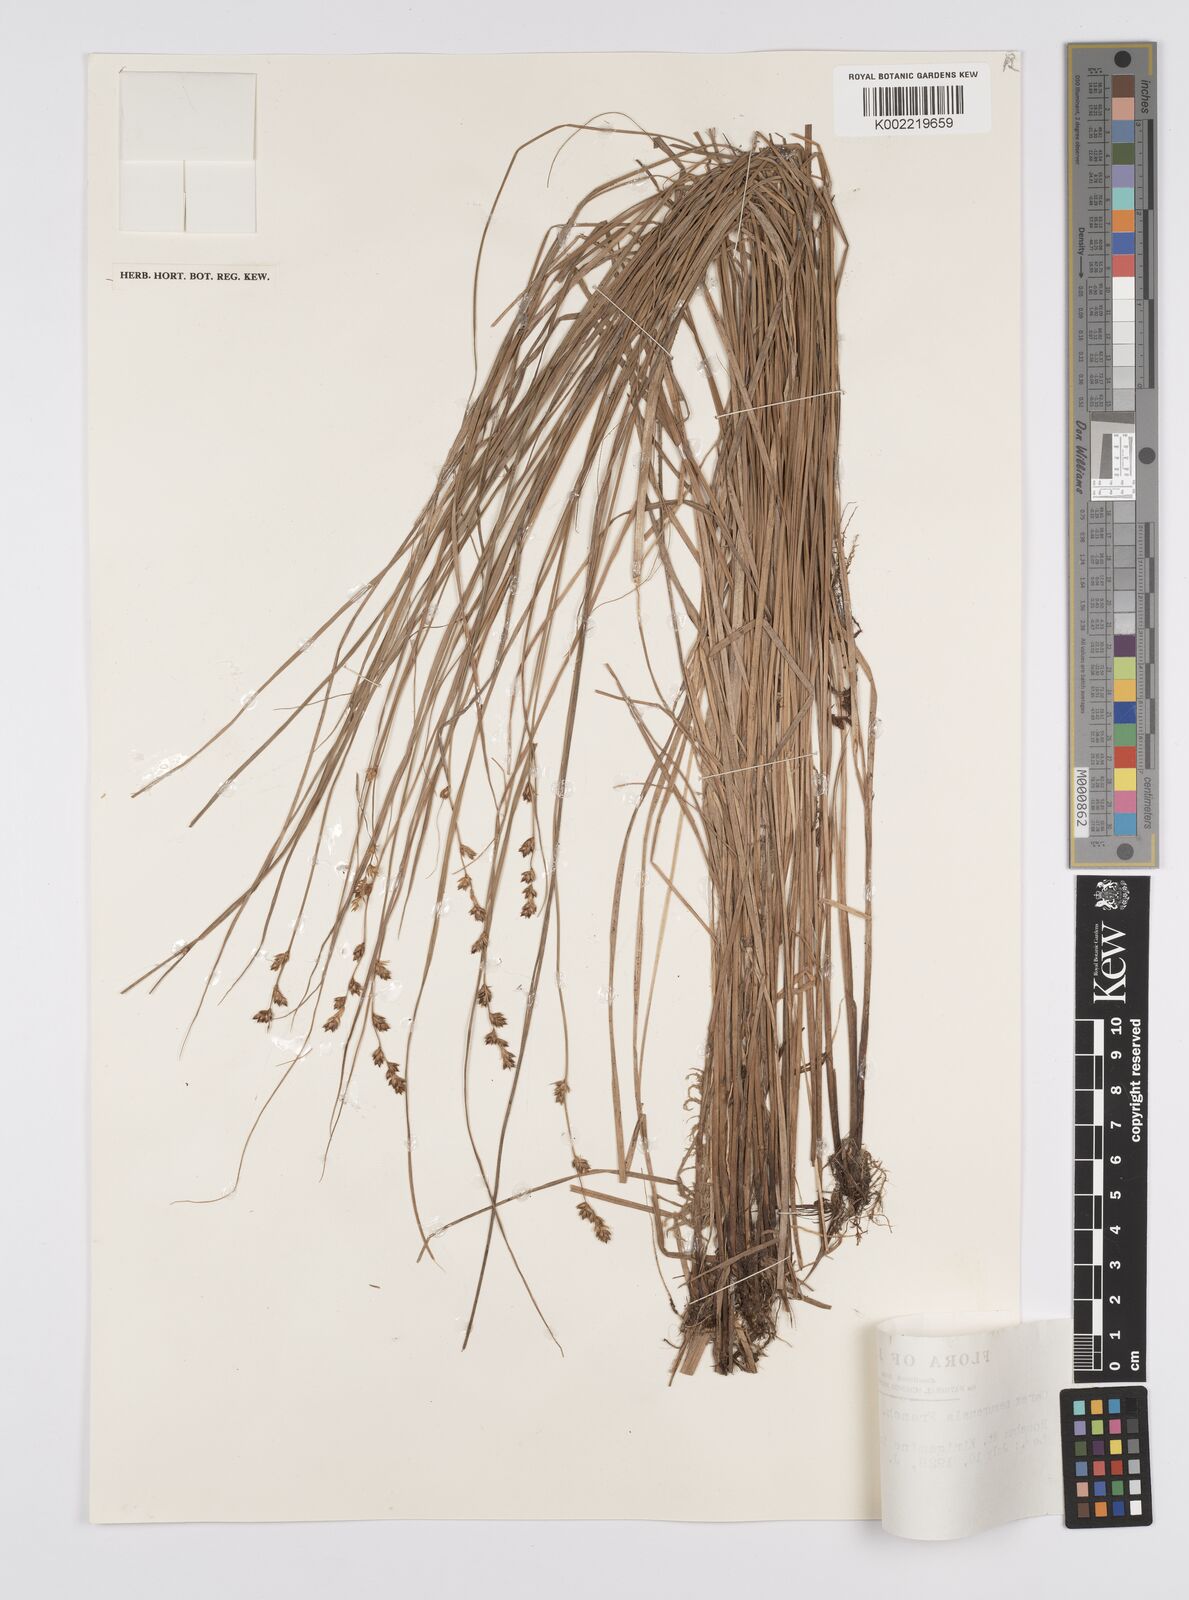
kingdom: Plantae
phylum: Tracheophyta
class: Liliopsida
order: Poales
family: Cyperaceae
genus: Carex
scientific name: Carex traiziscana
